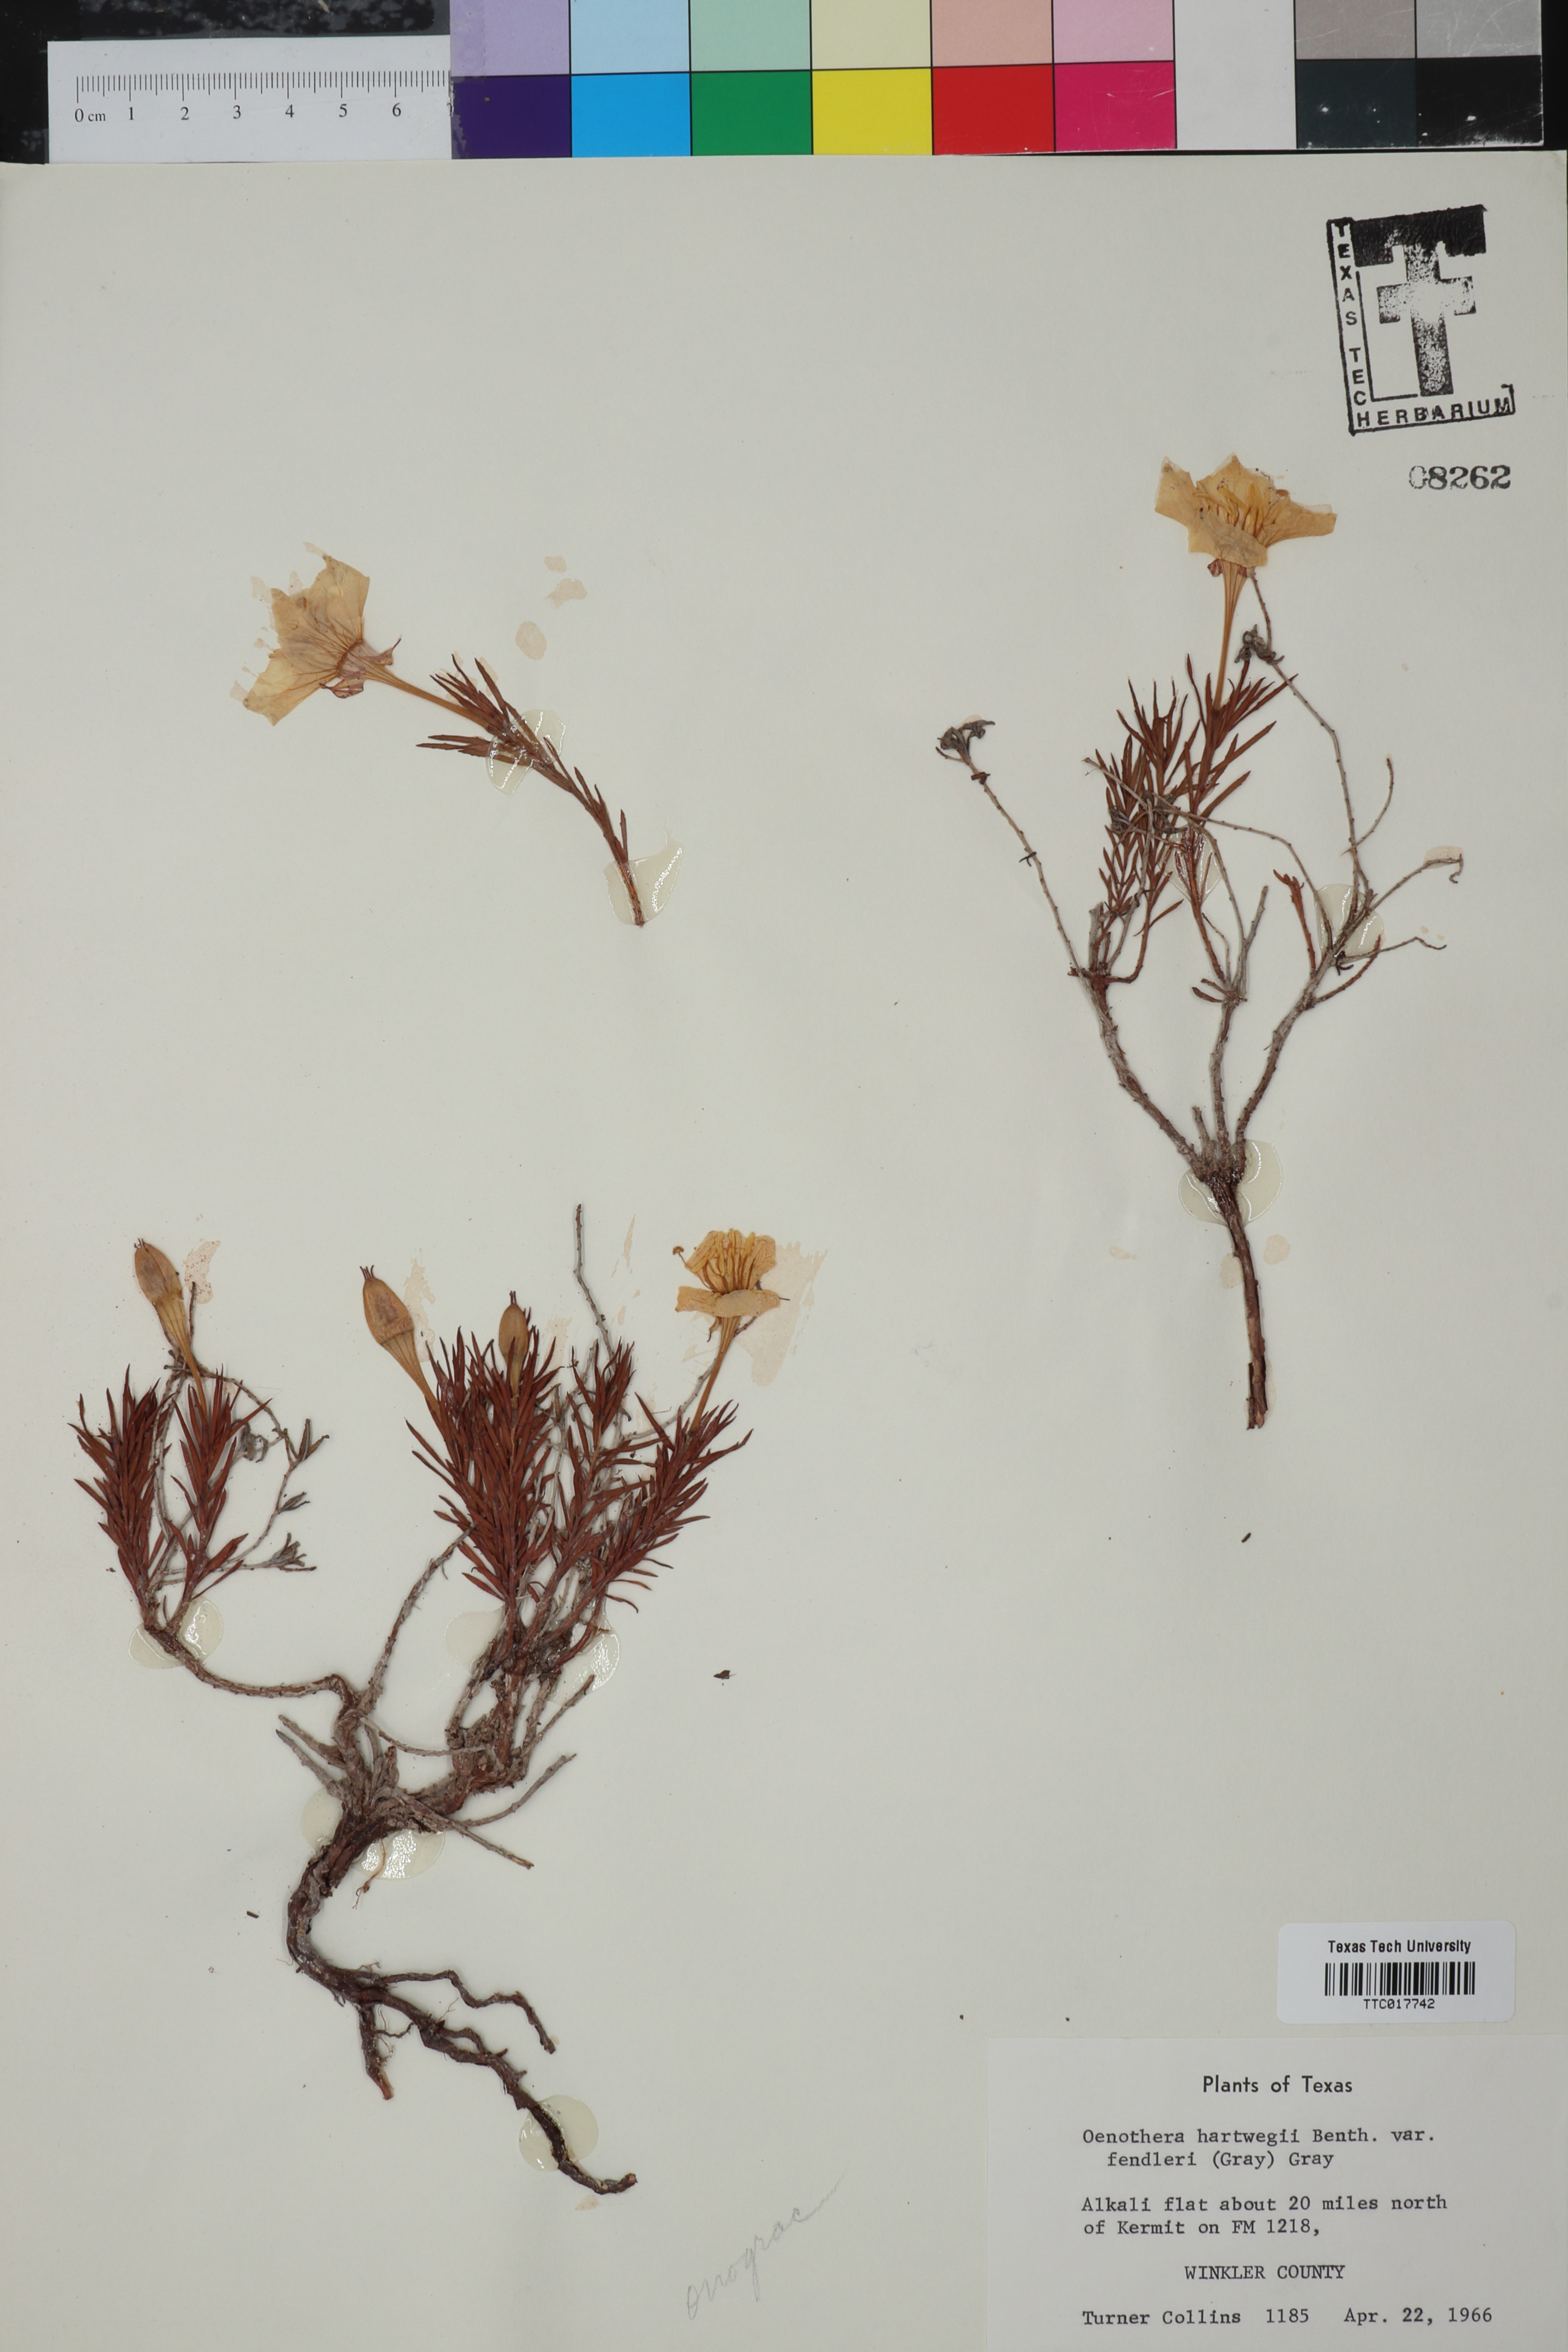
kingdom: Plantae
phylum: Tracheophyta
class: Magnoliopsida
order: Myrtales
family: Onagraceae
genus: Oenothera
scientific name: Oenothera hartwegii
